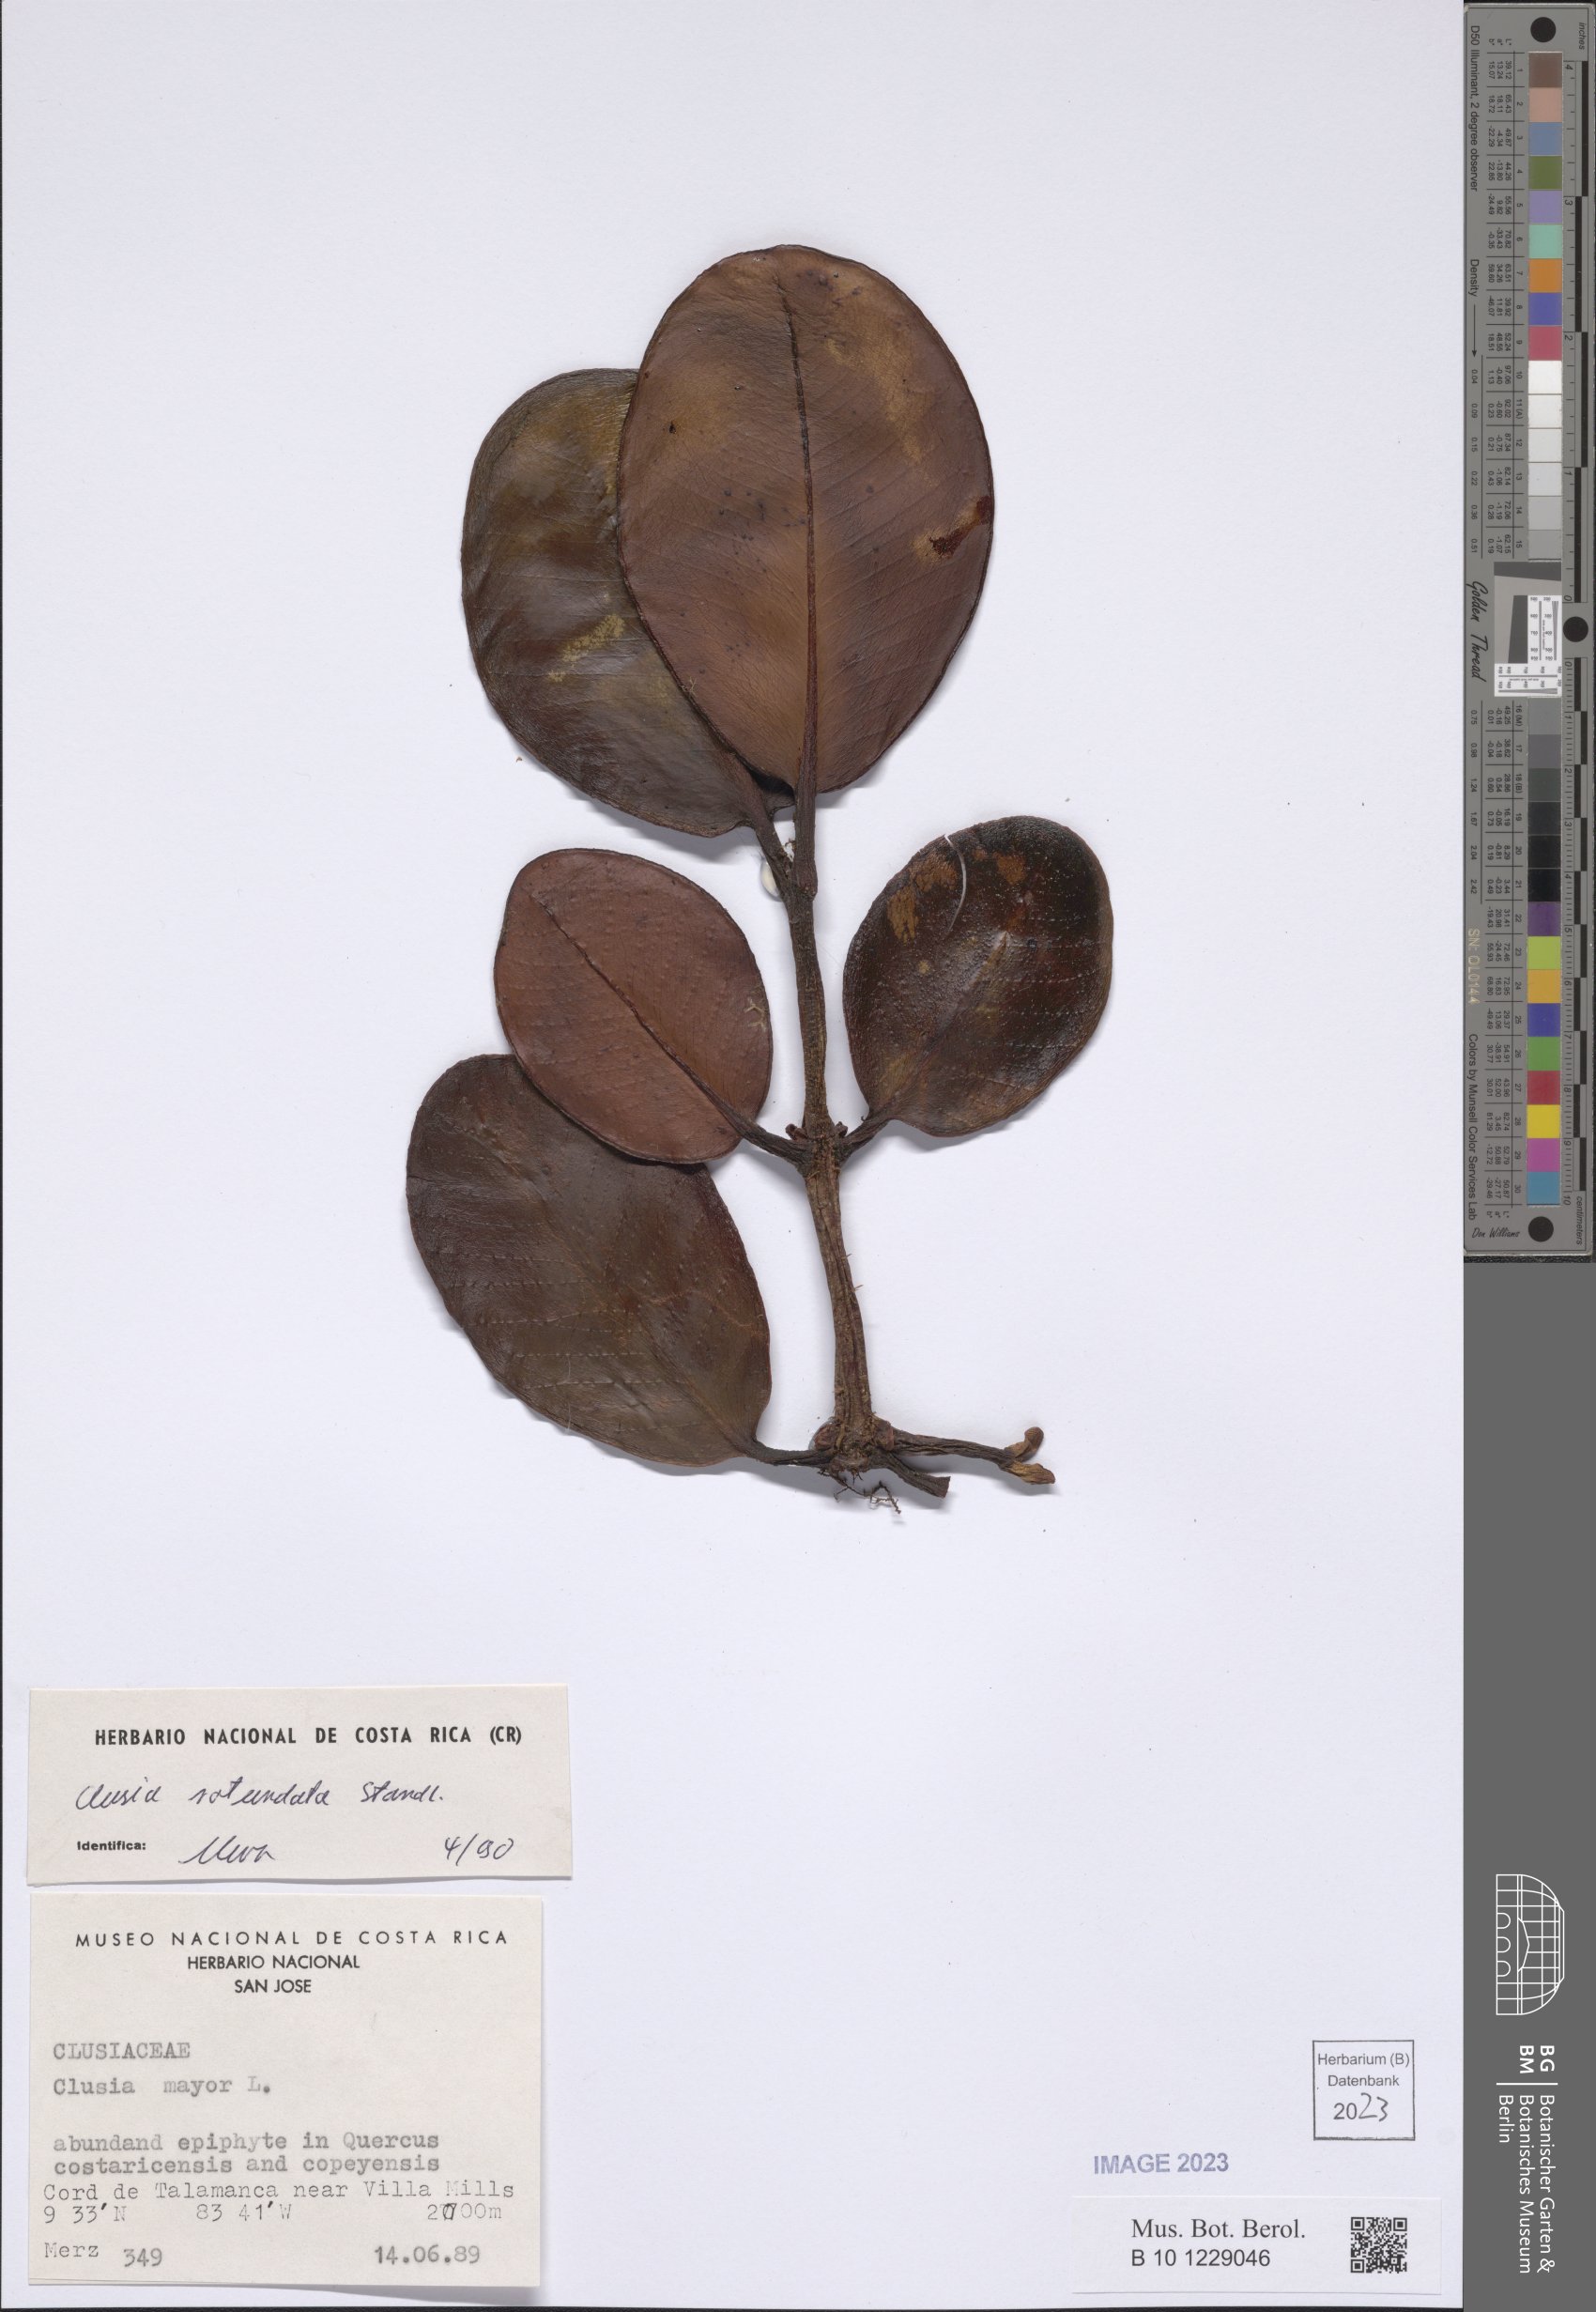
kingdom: Plantae
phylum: Tracheophyta
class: Magnoliopsida
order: Malpighiales
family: Clusiaceae
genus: Clusia
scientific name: Clusia rotundata
